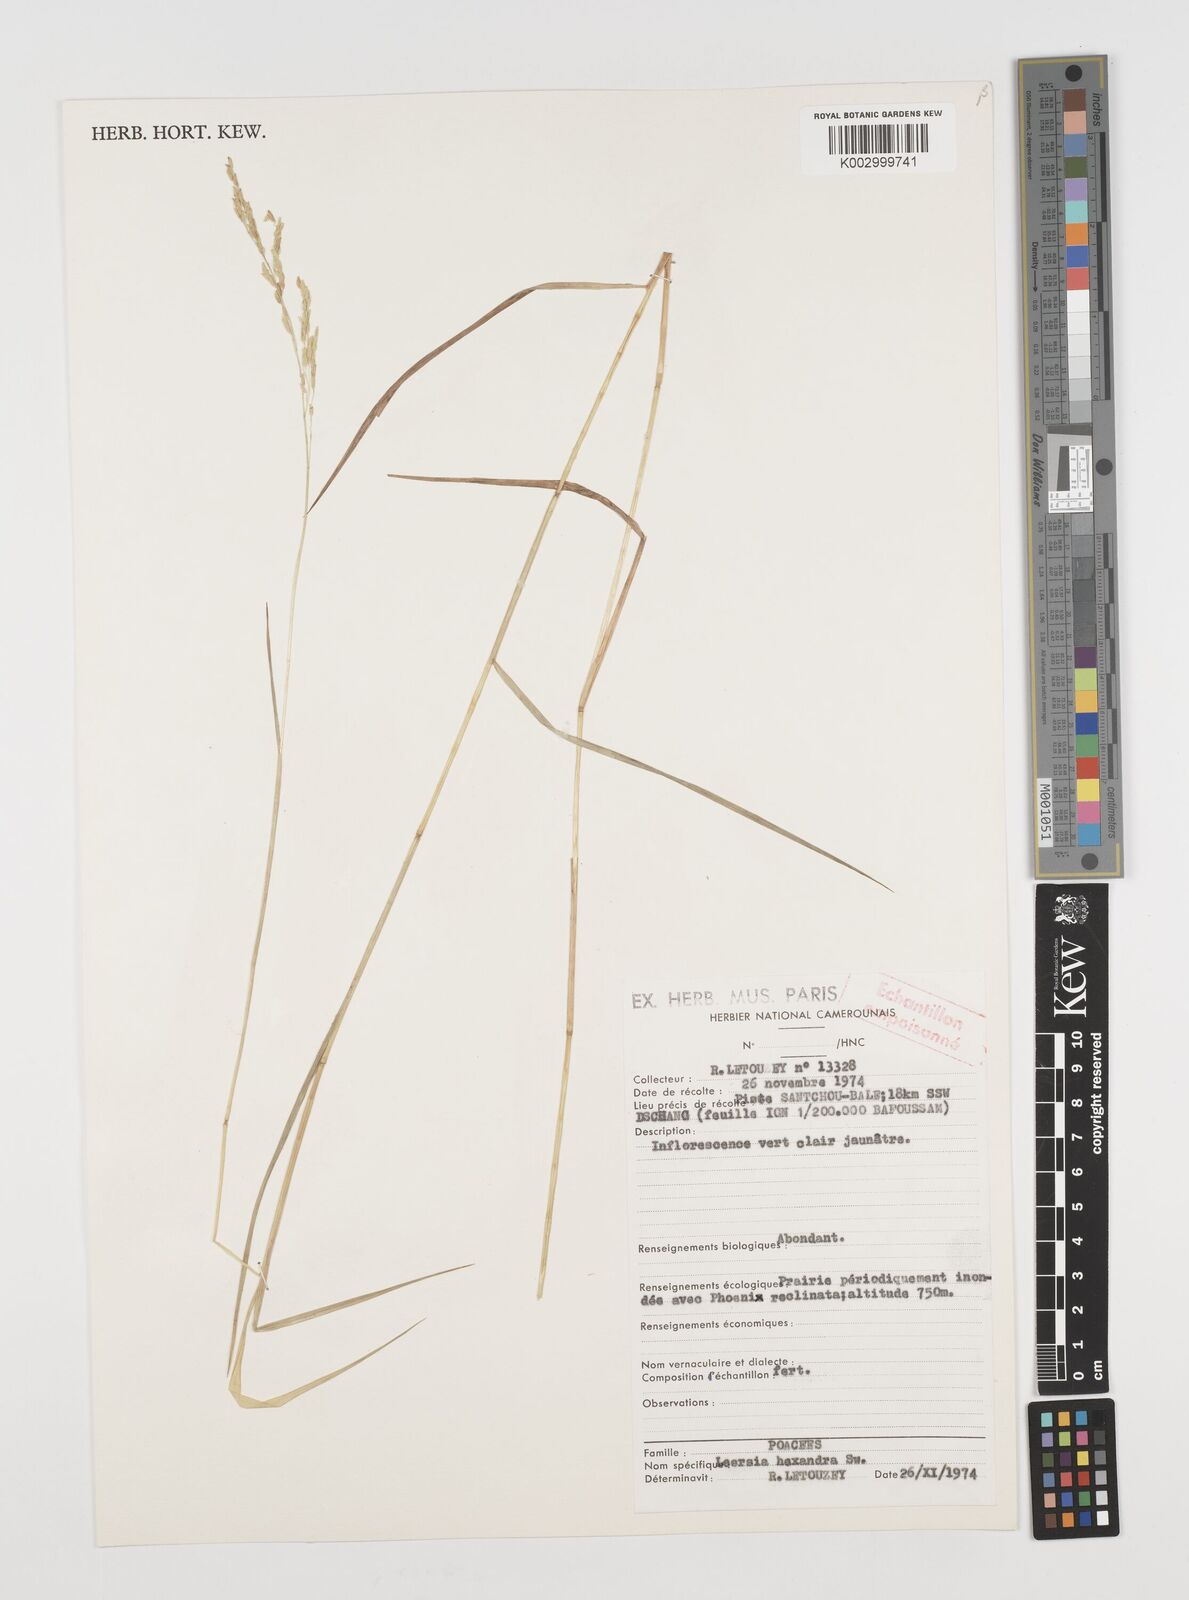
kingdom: Plantae
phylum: Tracheophyta
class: Liliopsida
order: Poales
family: Poaceae
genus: Leersia
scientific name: Leersia hexandra
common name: Southern cut grass
